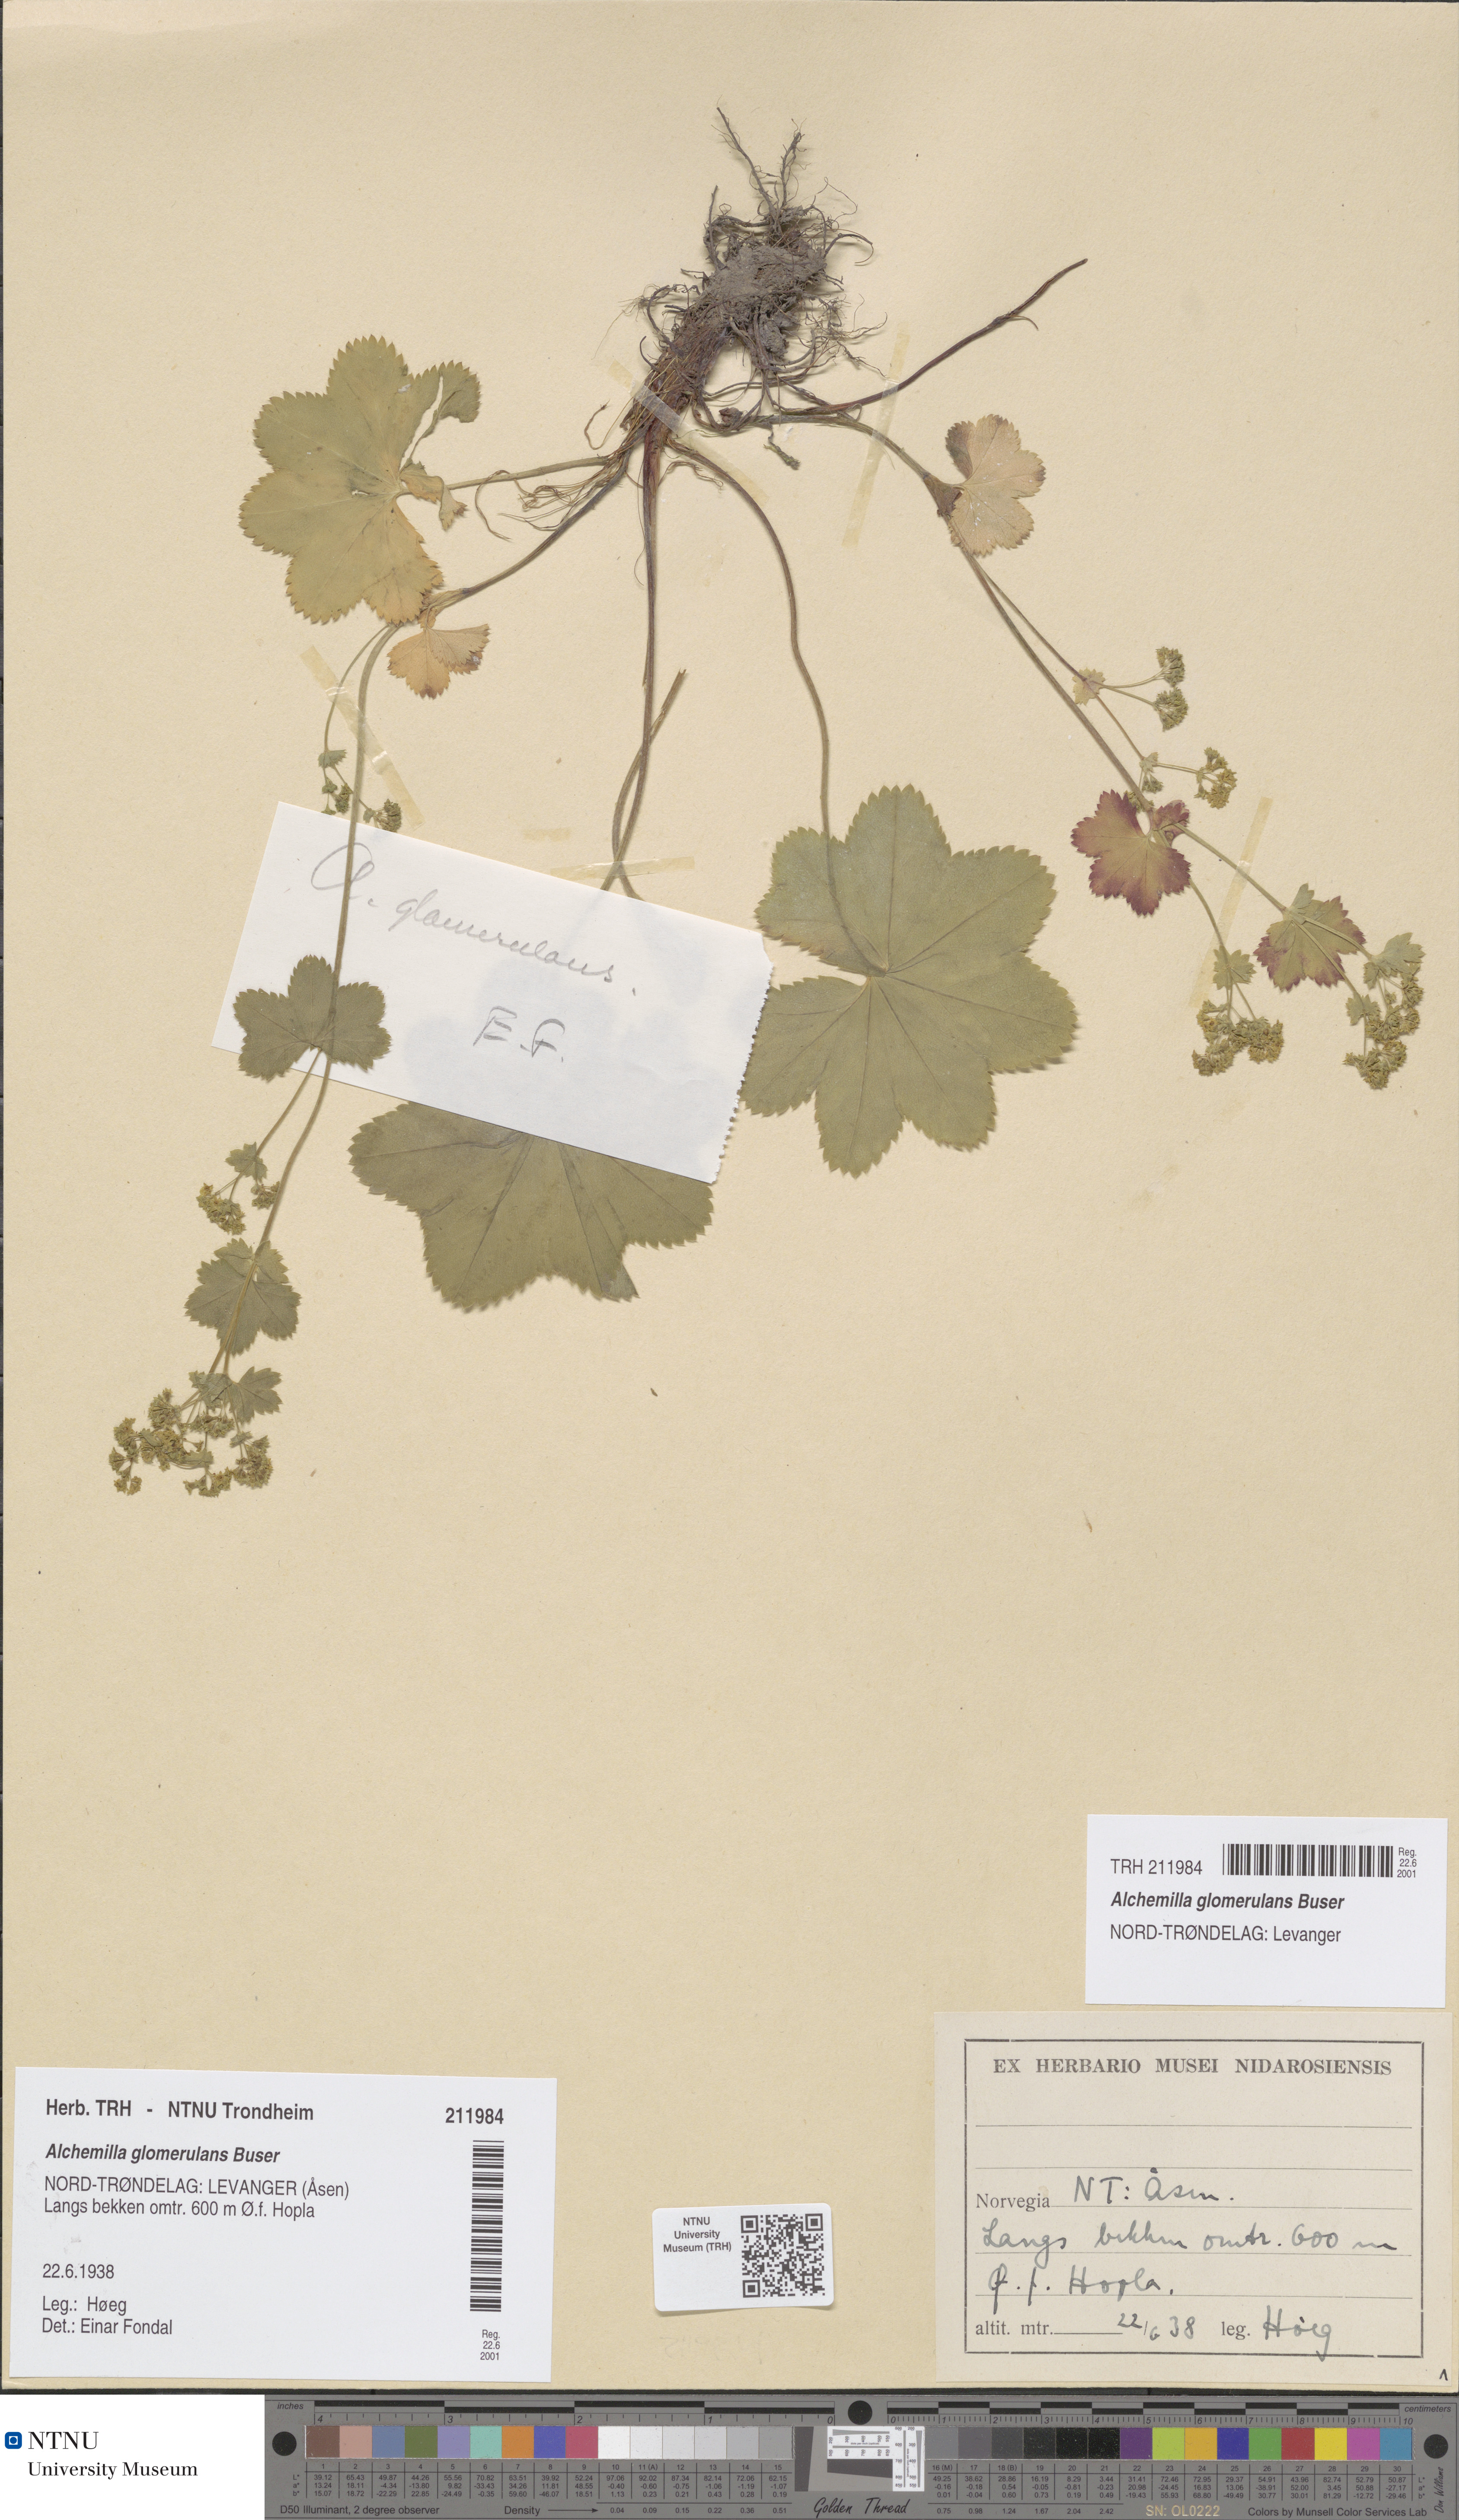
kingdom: Plantae
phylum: Tracheophyta
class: Magnoliopsida
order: Rosales
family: Rosaceae
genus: Alchemilla
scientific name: Alchemilla glomerulans
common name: Clustered lady's mantle
